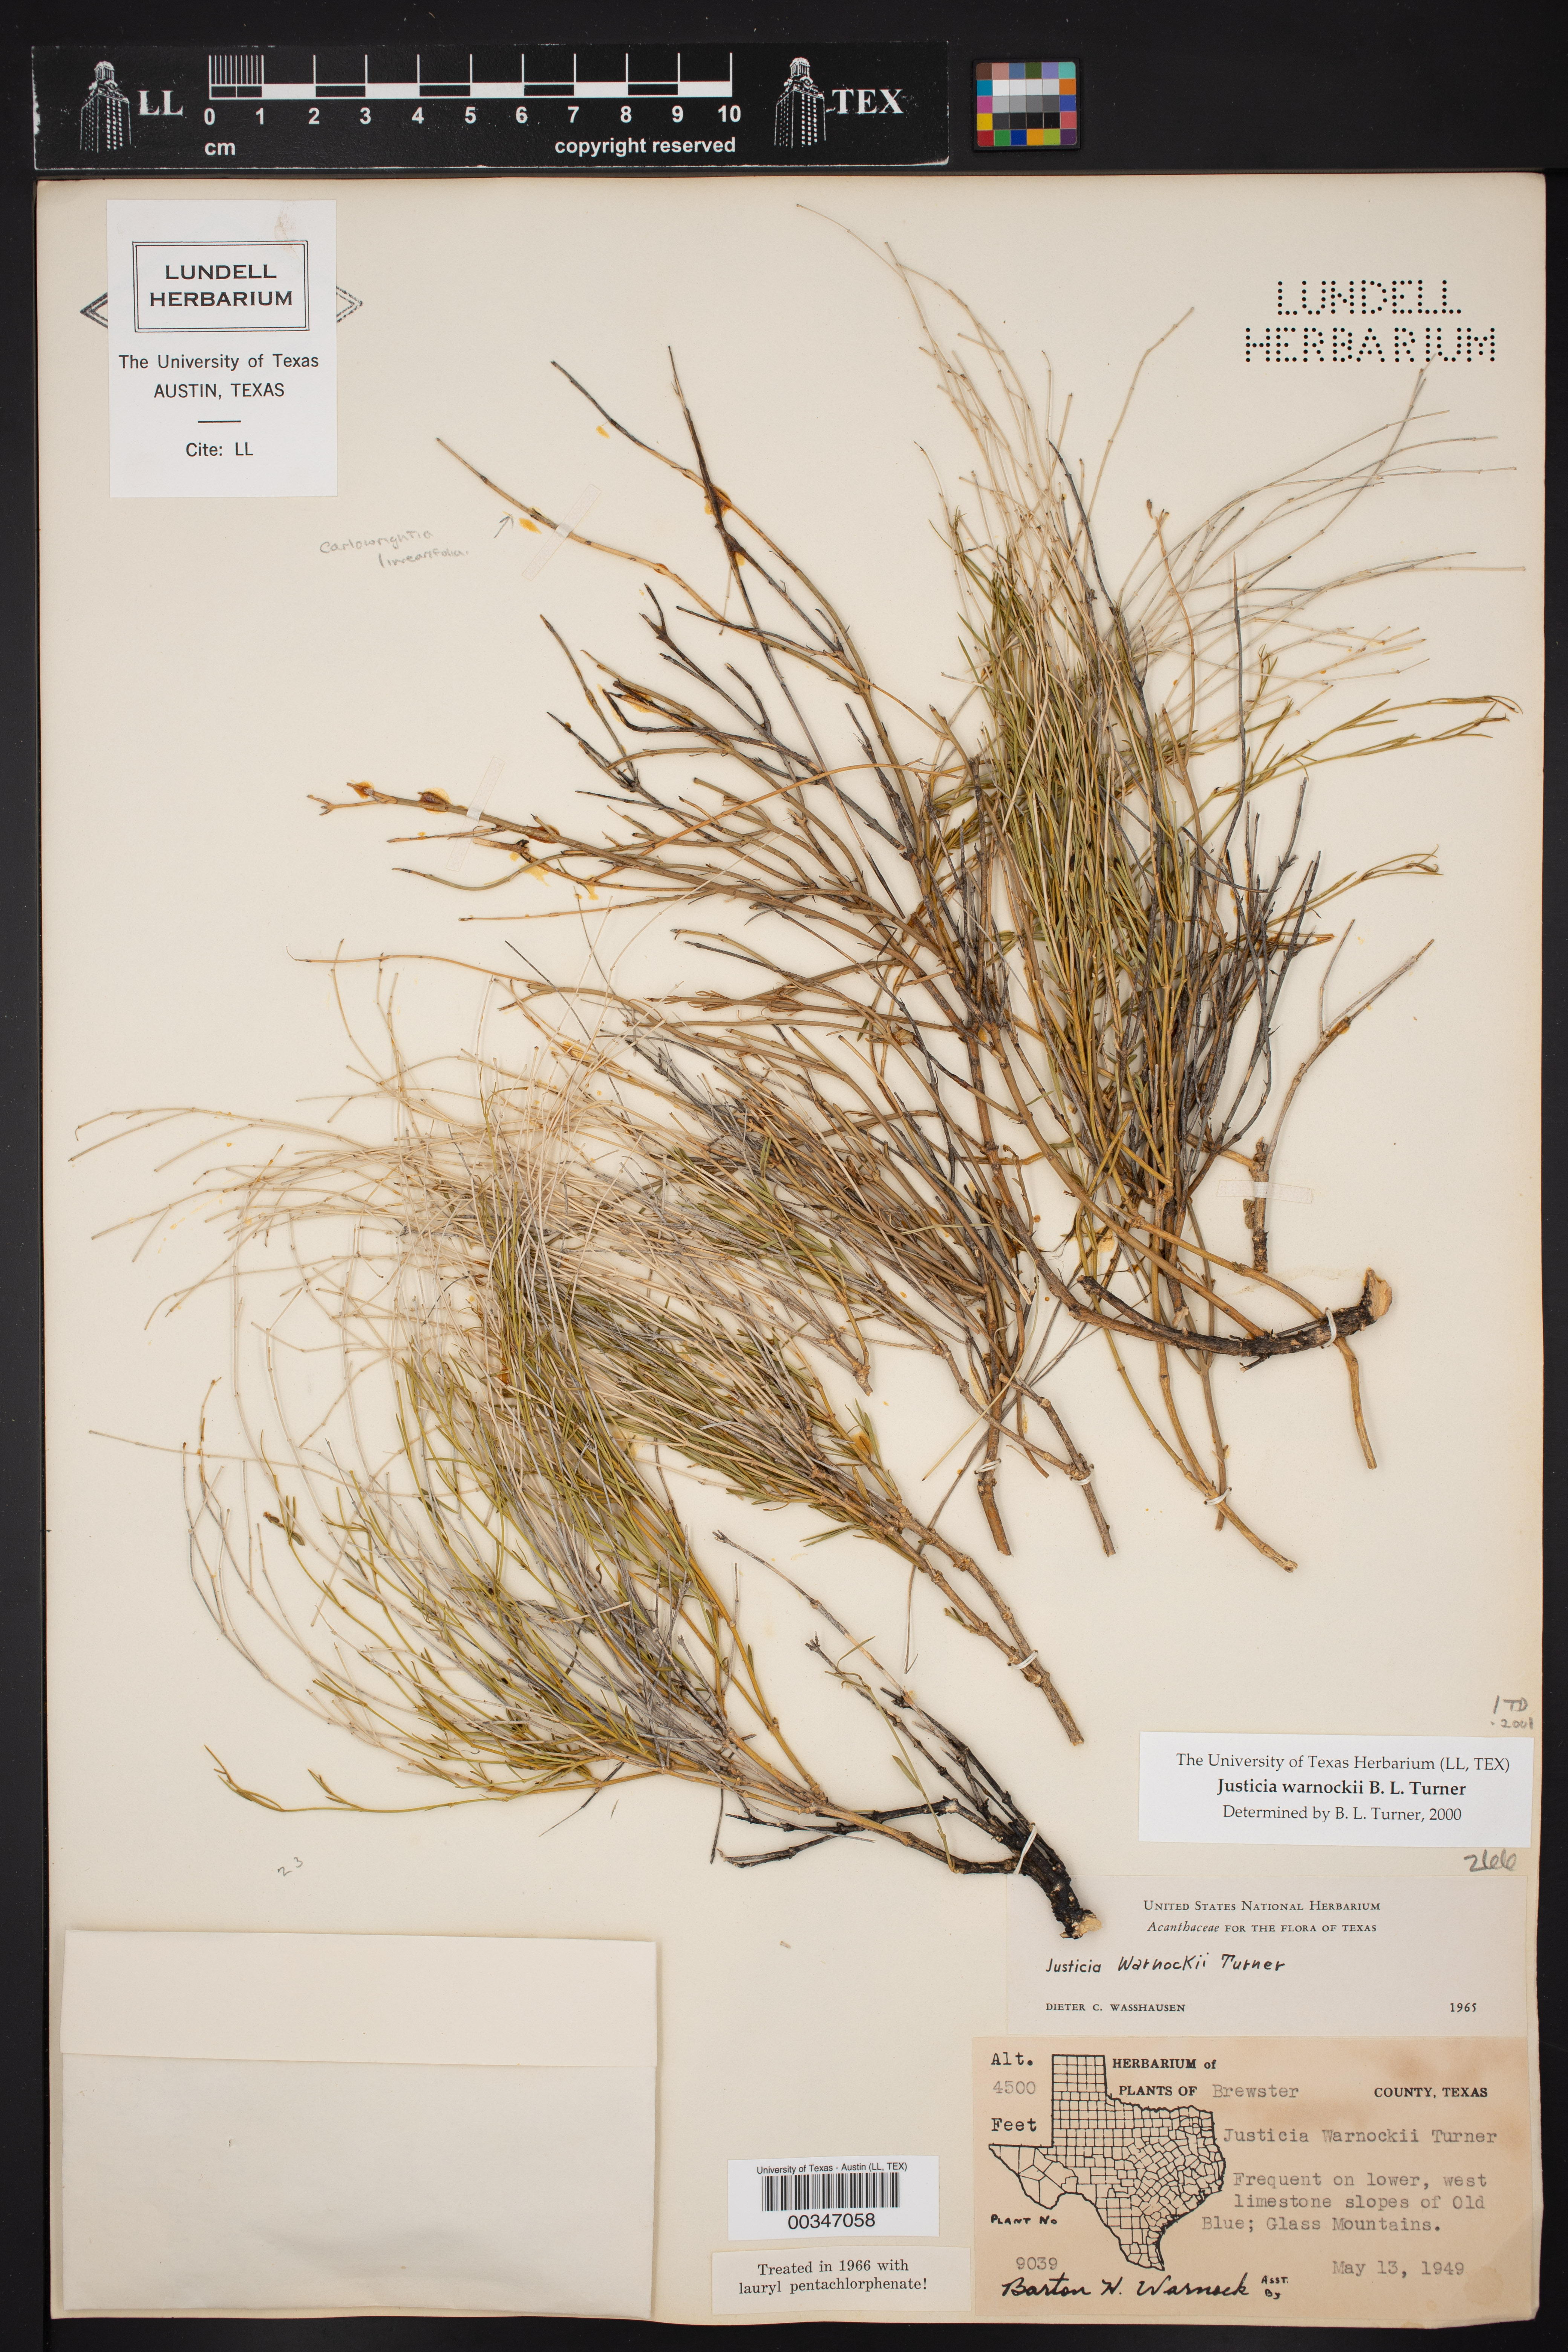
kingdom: Plantae
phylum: Tracheophyta
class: Magnoliopsida
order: Lamiales
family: Acanthaceae
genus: Justicia
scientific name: Justicia warnockii
